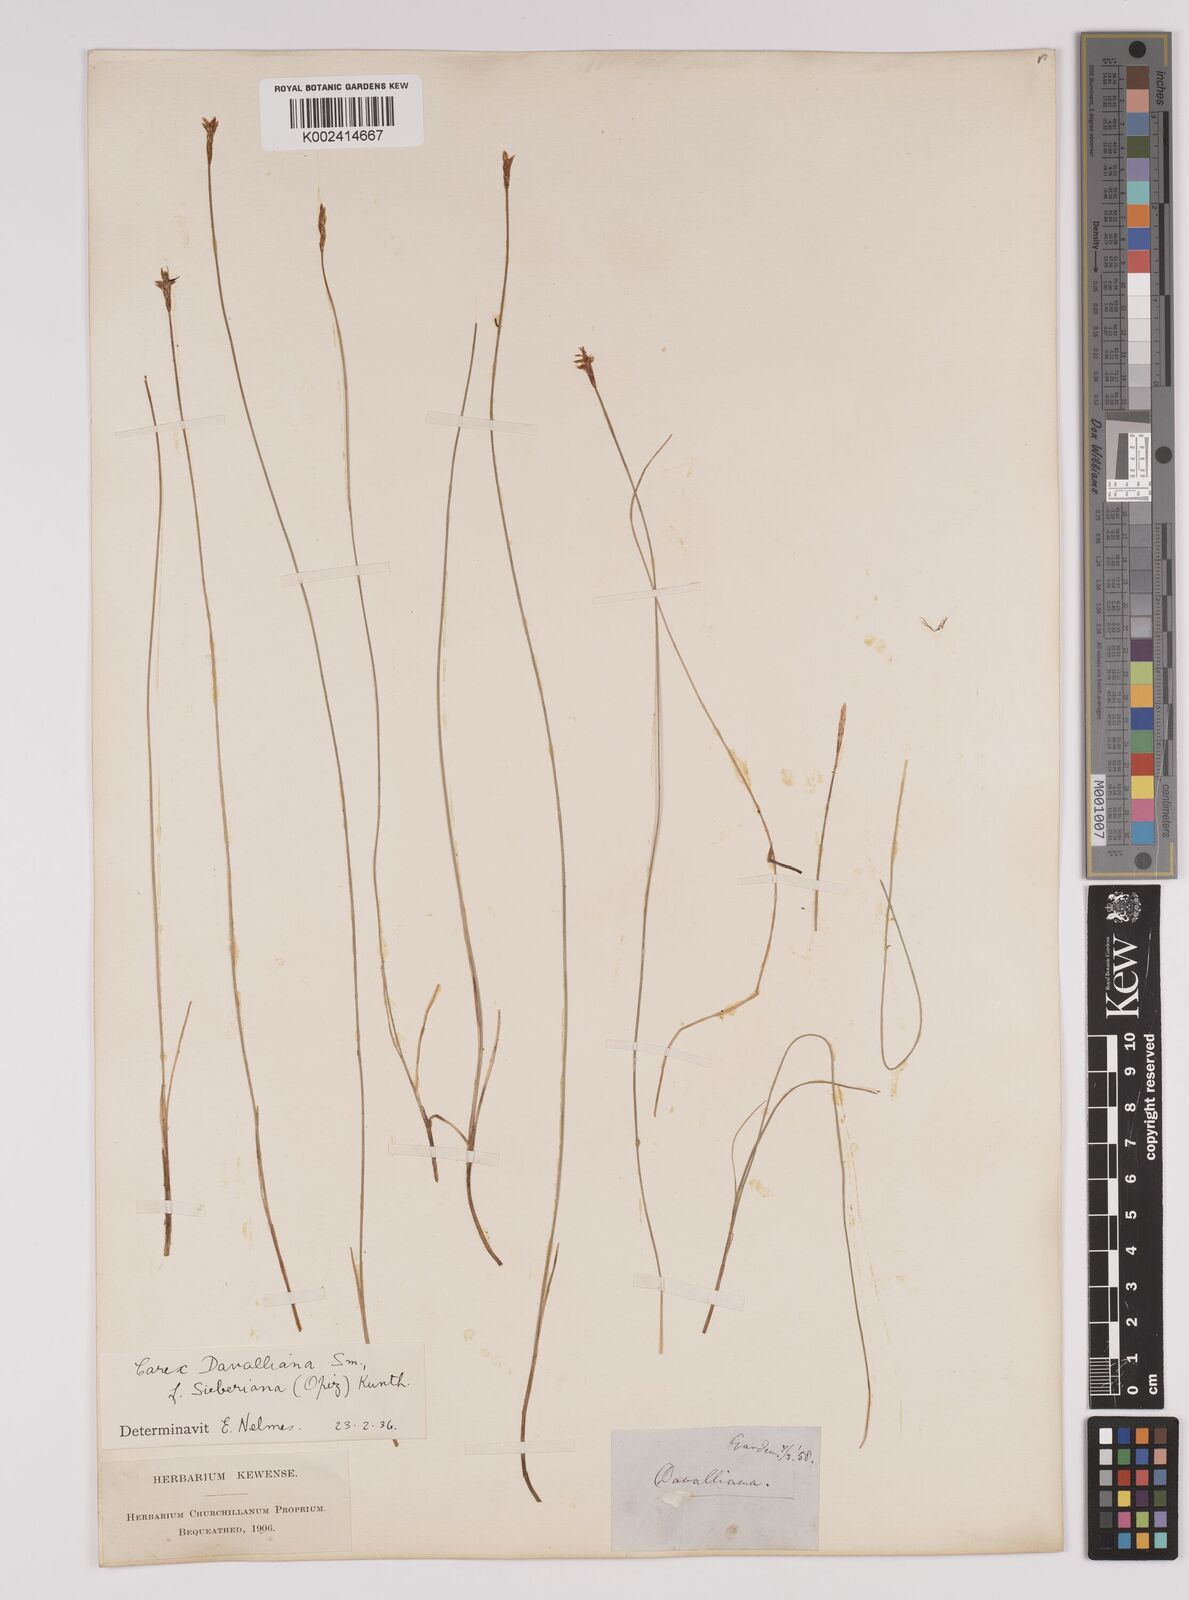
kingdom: Plantae
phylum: Tracheophyta
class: Liliopsida
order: Poales
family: Cyperaceae
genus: Carex
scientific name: Carex davalliana
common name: Davall's sedge
